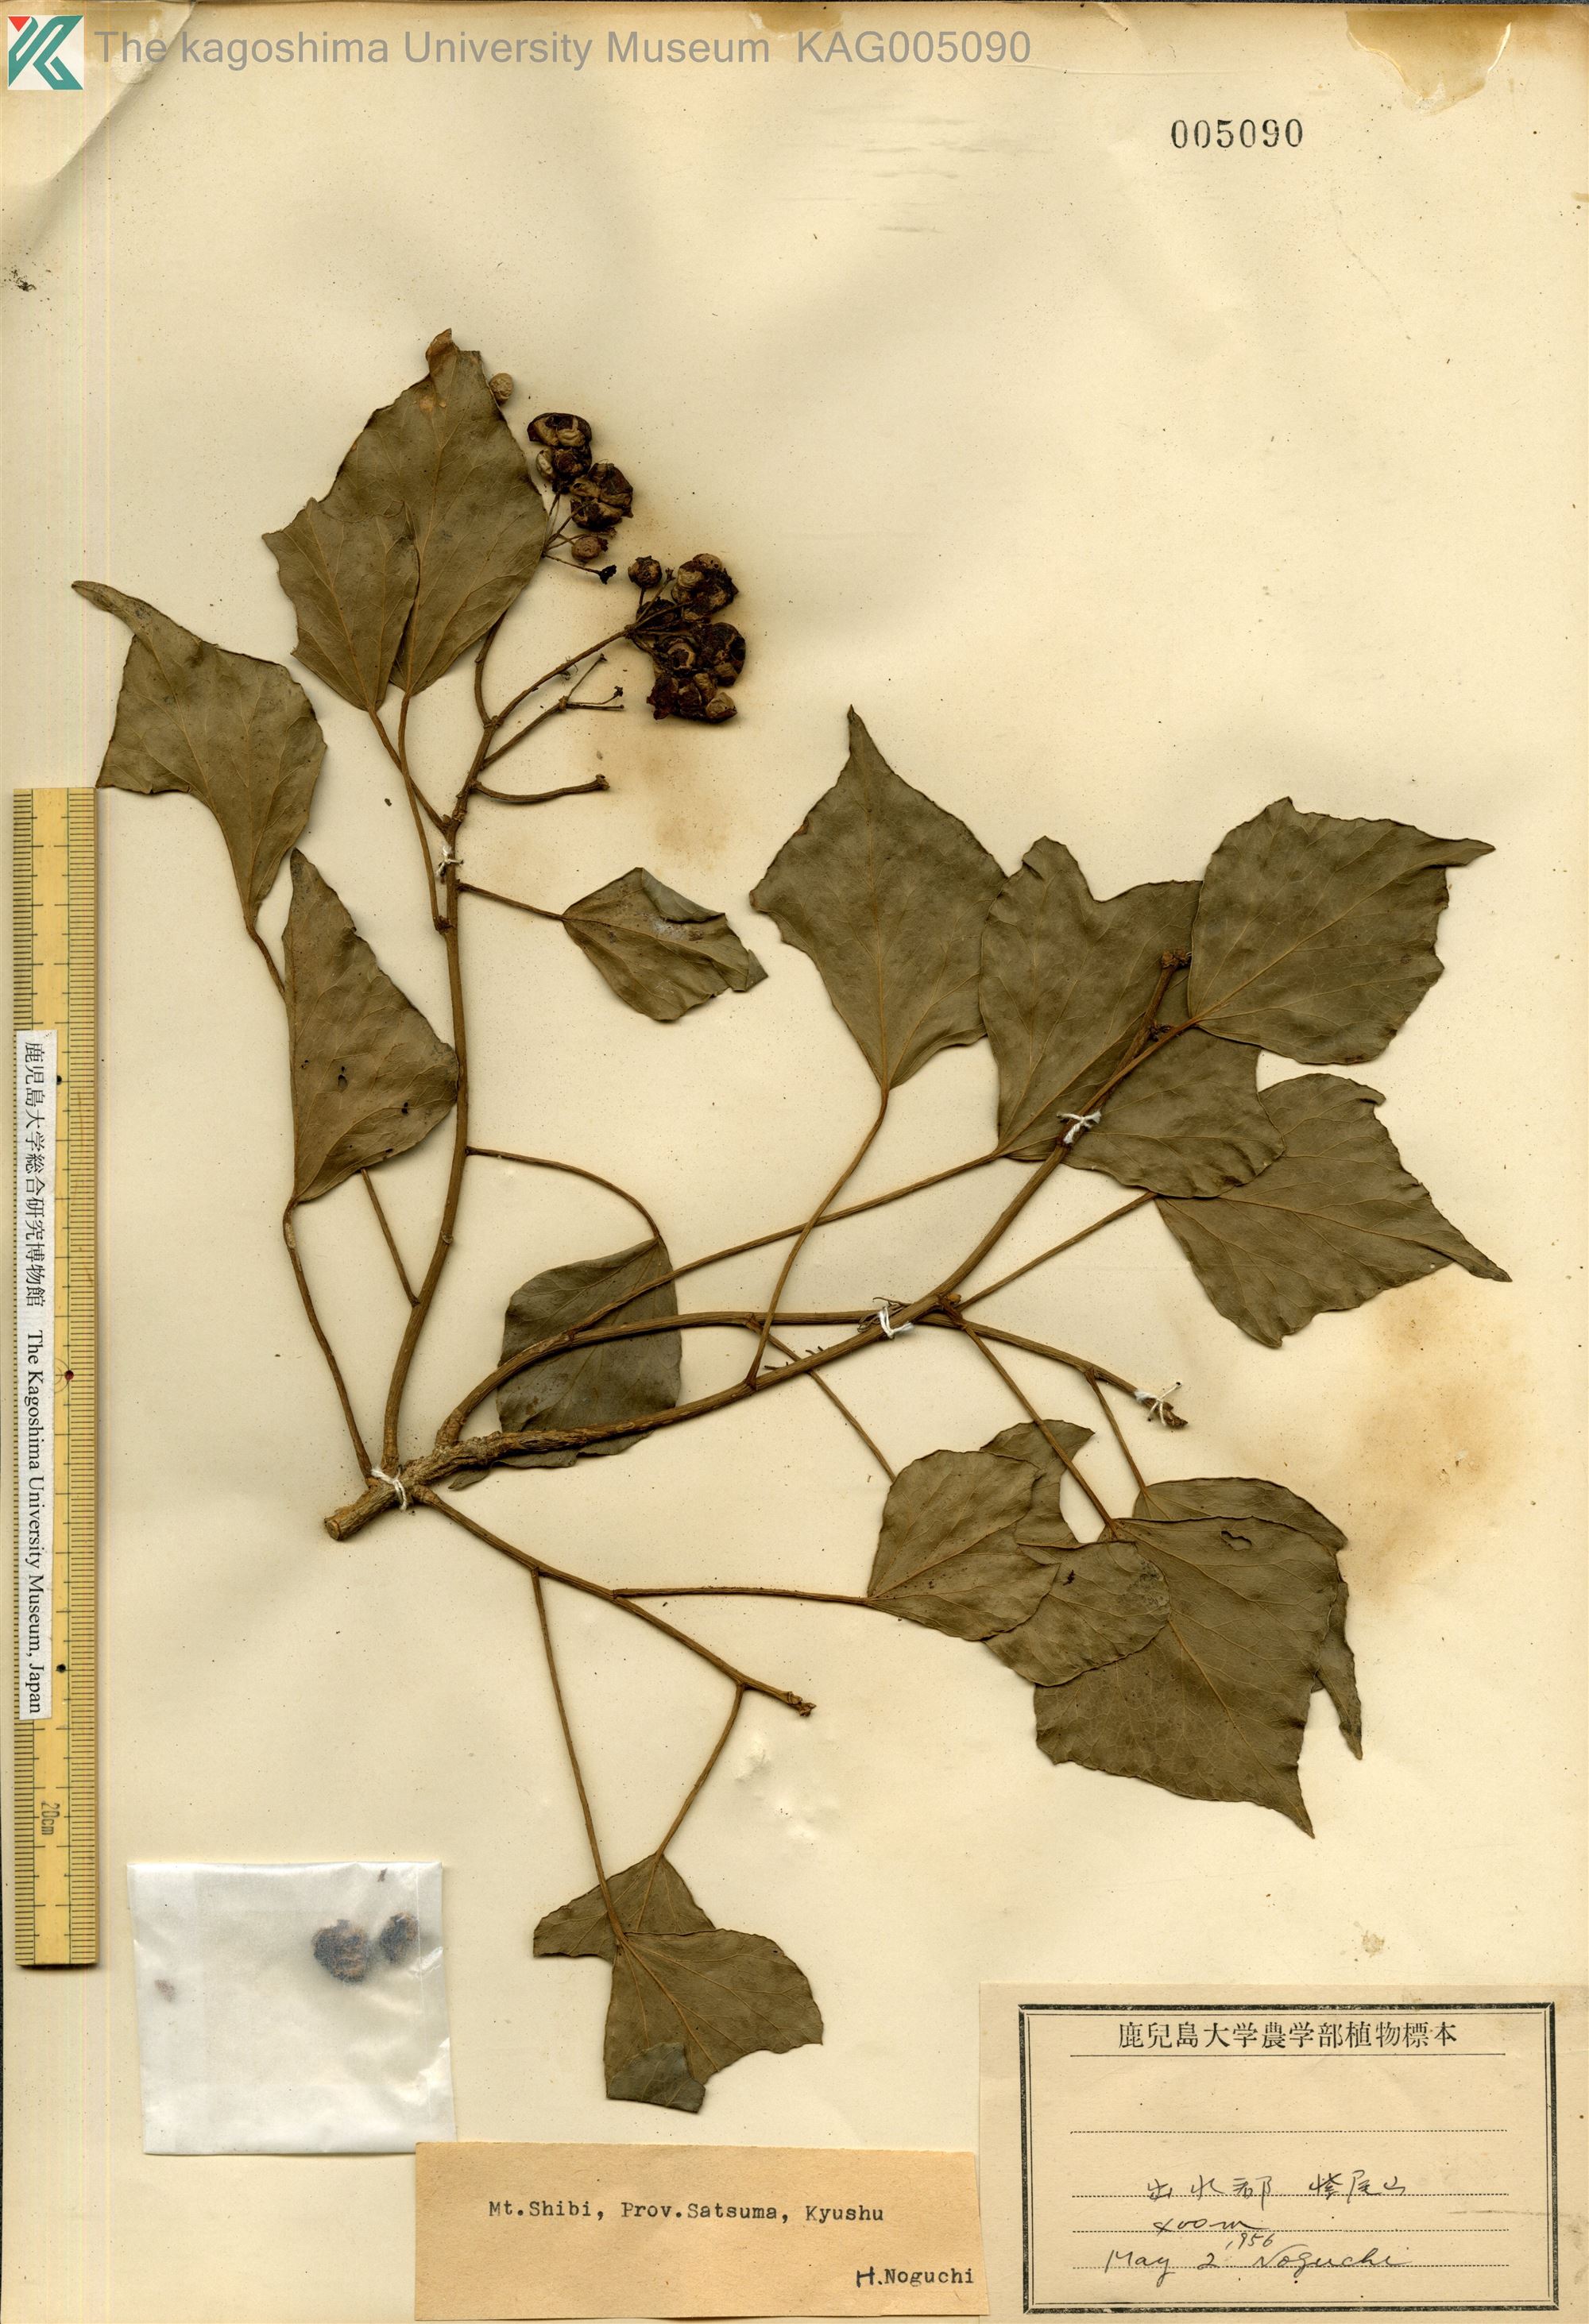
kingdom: Plantae
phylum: Tracheophyta
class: Magnoliopsida
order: Apiales
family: Araliaceae
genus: Hedera
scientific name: Hedera rhombea
